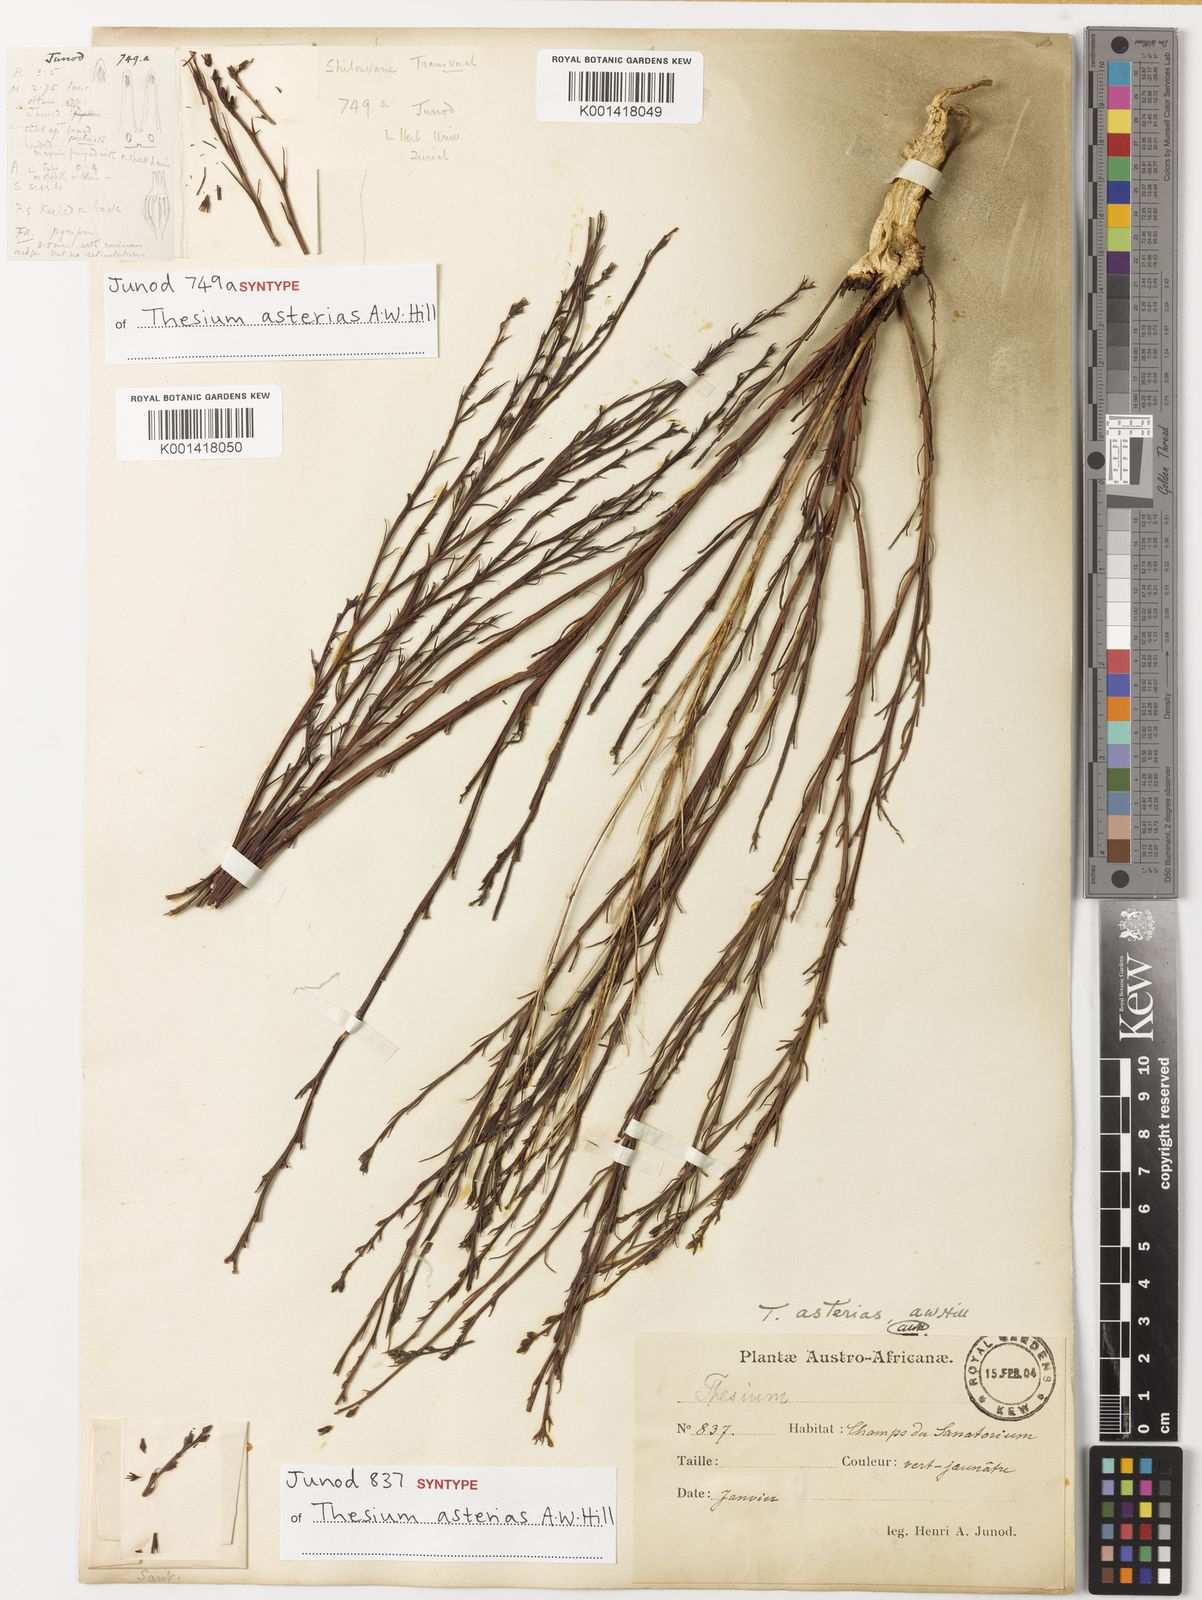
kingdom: Plantae
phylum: Tracheophyta
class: Magnoliopsida
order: Santalales
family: Thesiaceae
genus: Thesium
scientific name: Thesium asterias
